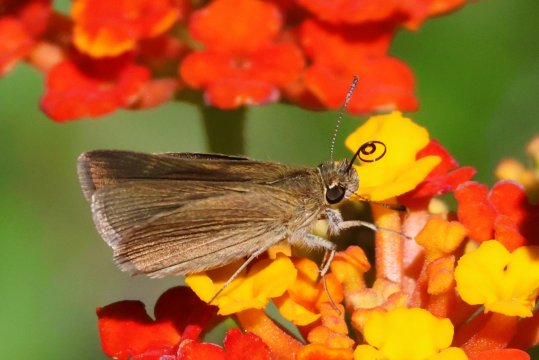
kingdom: Animalia
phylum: Arthropoda
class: Insecta
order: Lepidoptera
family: Hesperiidae
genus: Nastra
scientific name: Nastra neamathla
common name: Neamathla Skipper
